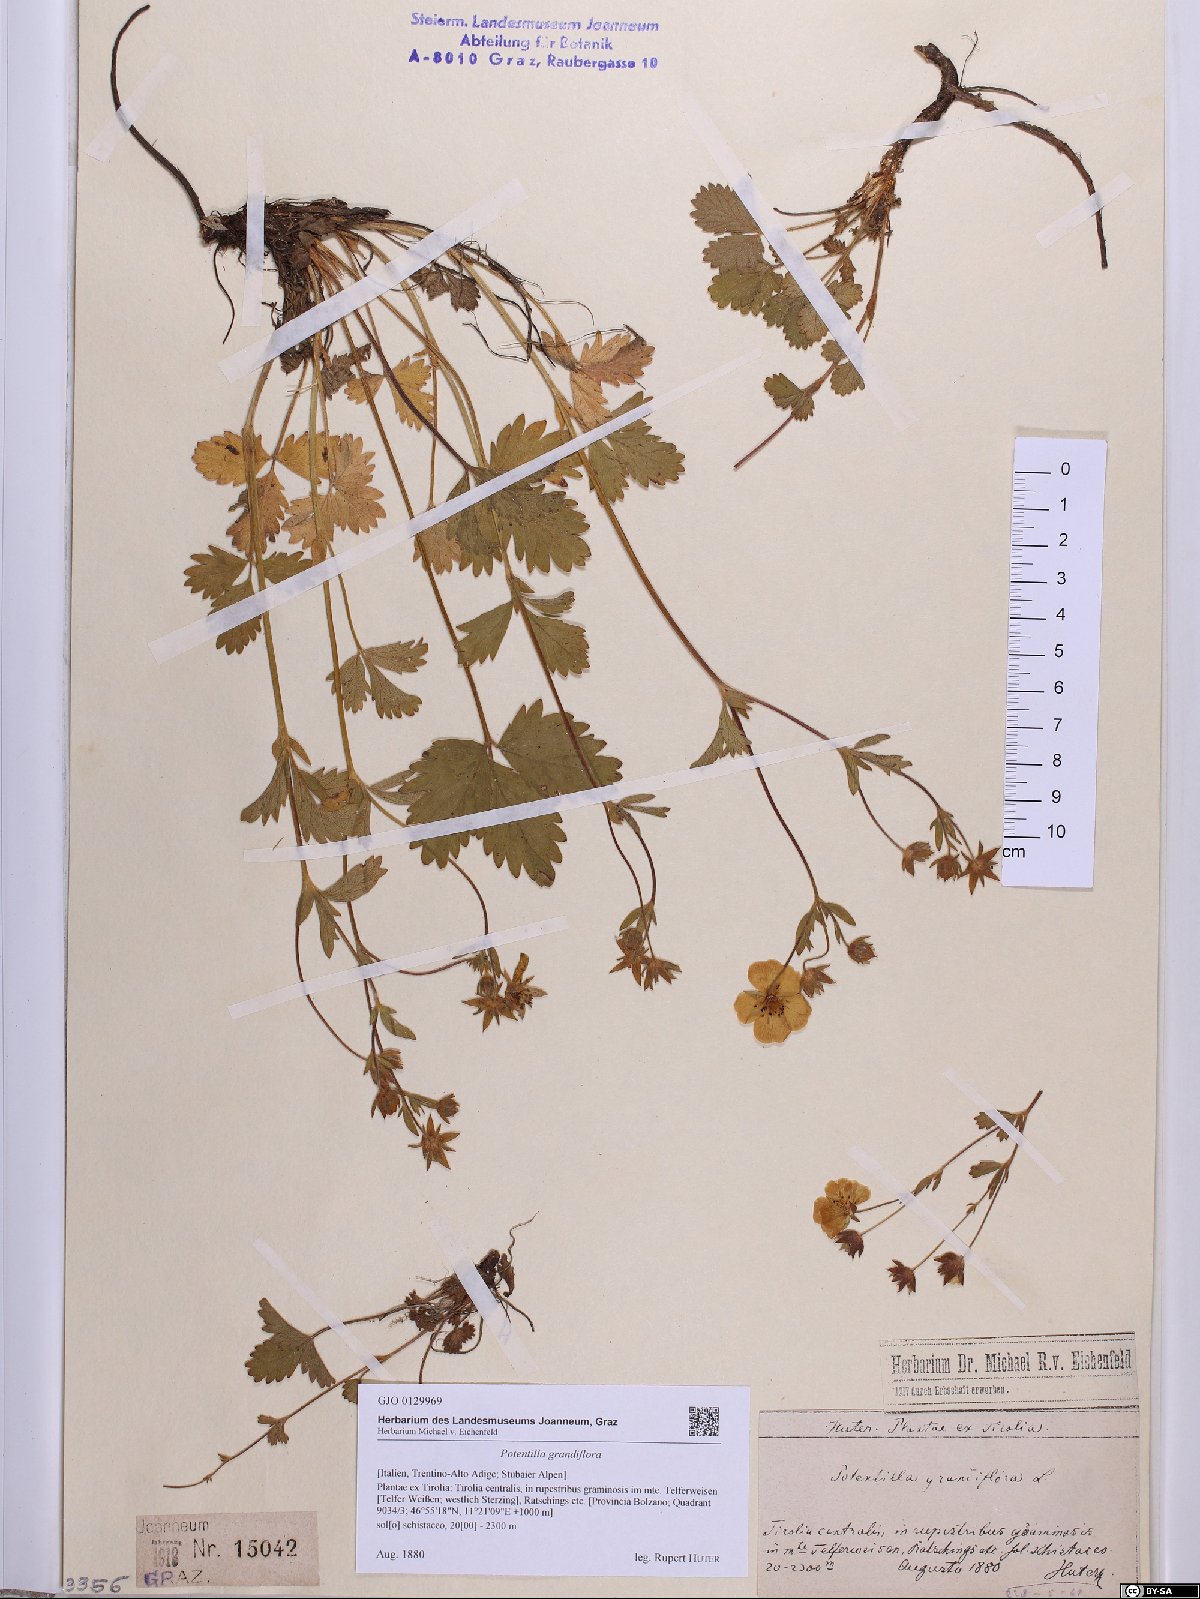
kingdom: Plantae
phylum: Tracheophyta
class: Magnoliopsida
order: Rosales
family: Rosaceae
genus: Potentilla
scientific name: Potentilla grandiflora
